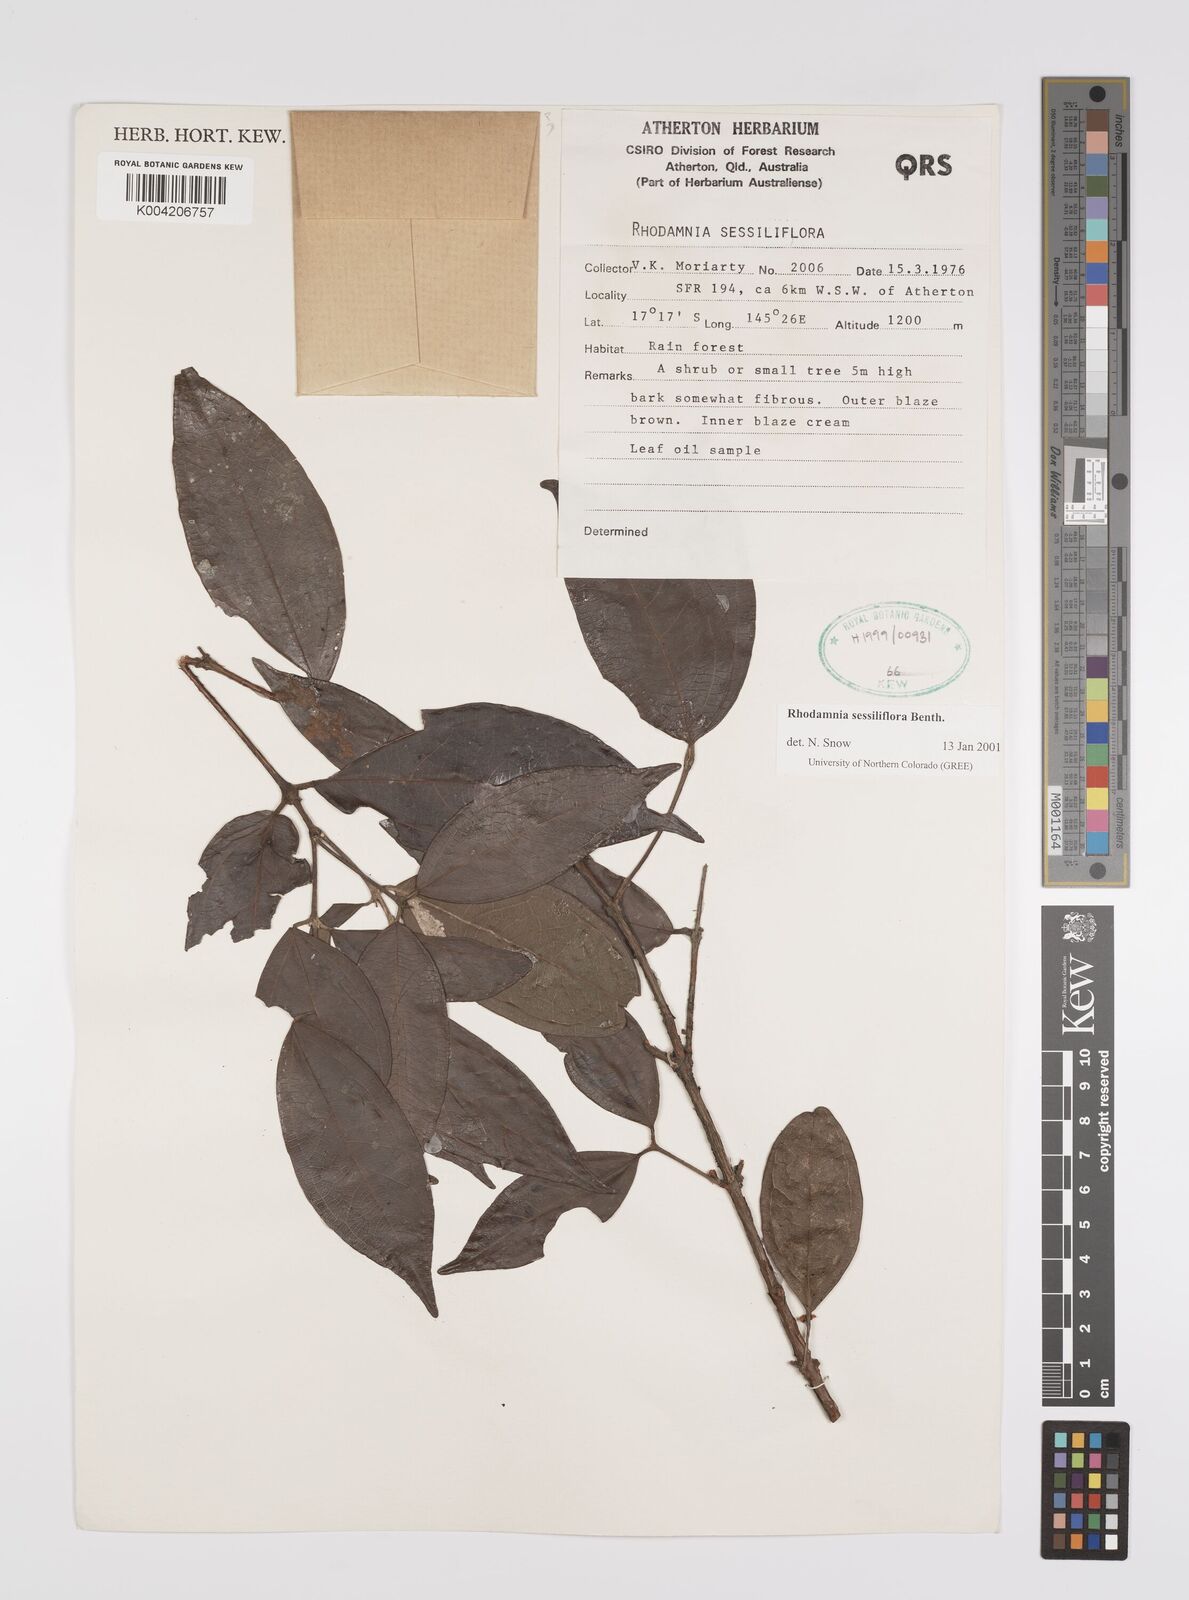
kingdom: Plantae
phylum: Tracheophyta
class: Magnoliopsida
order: Myrtales
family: Myrtaceae
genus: Rhodamnia
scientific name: Rhodamnia sessiliflora
